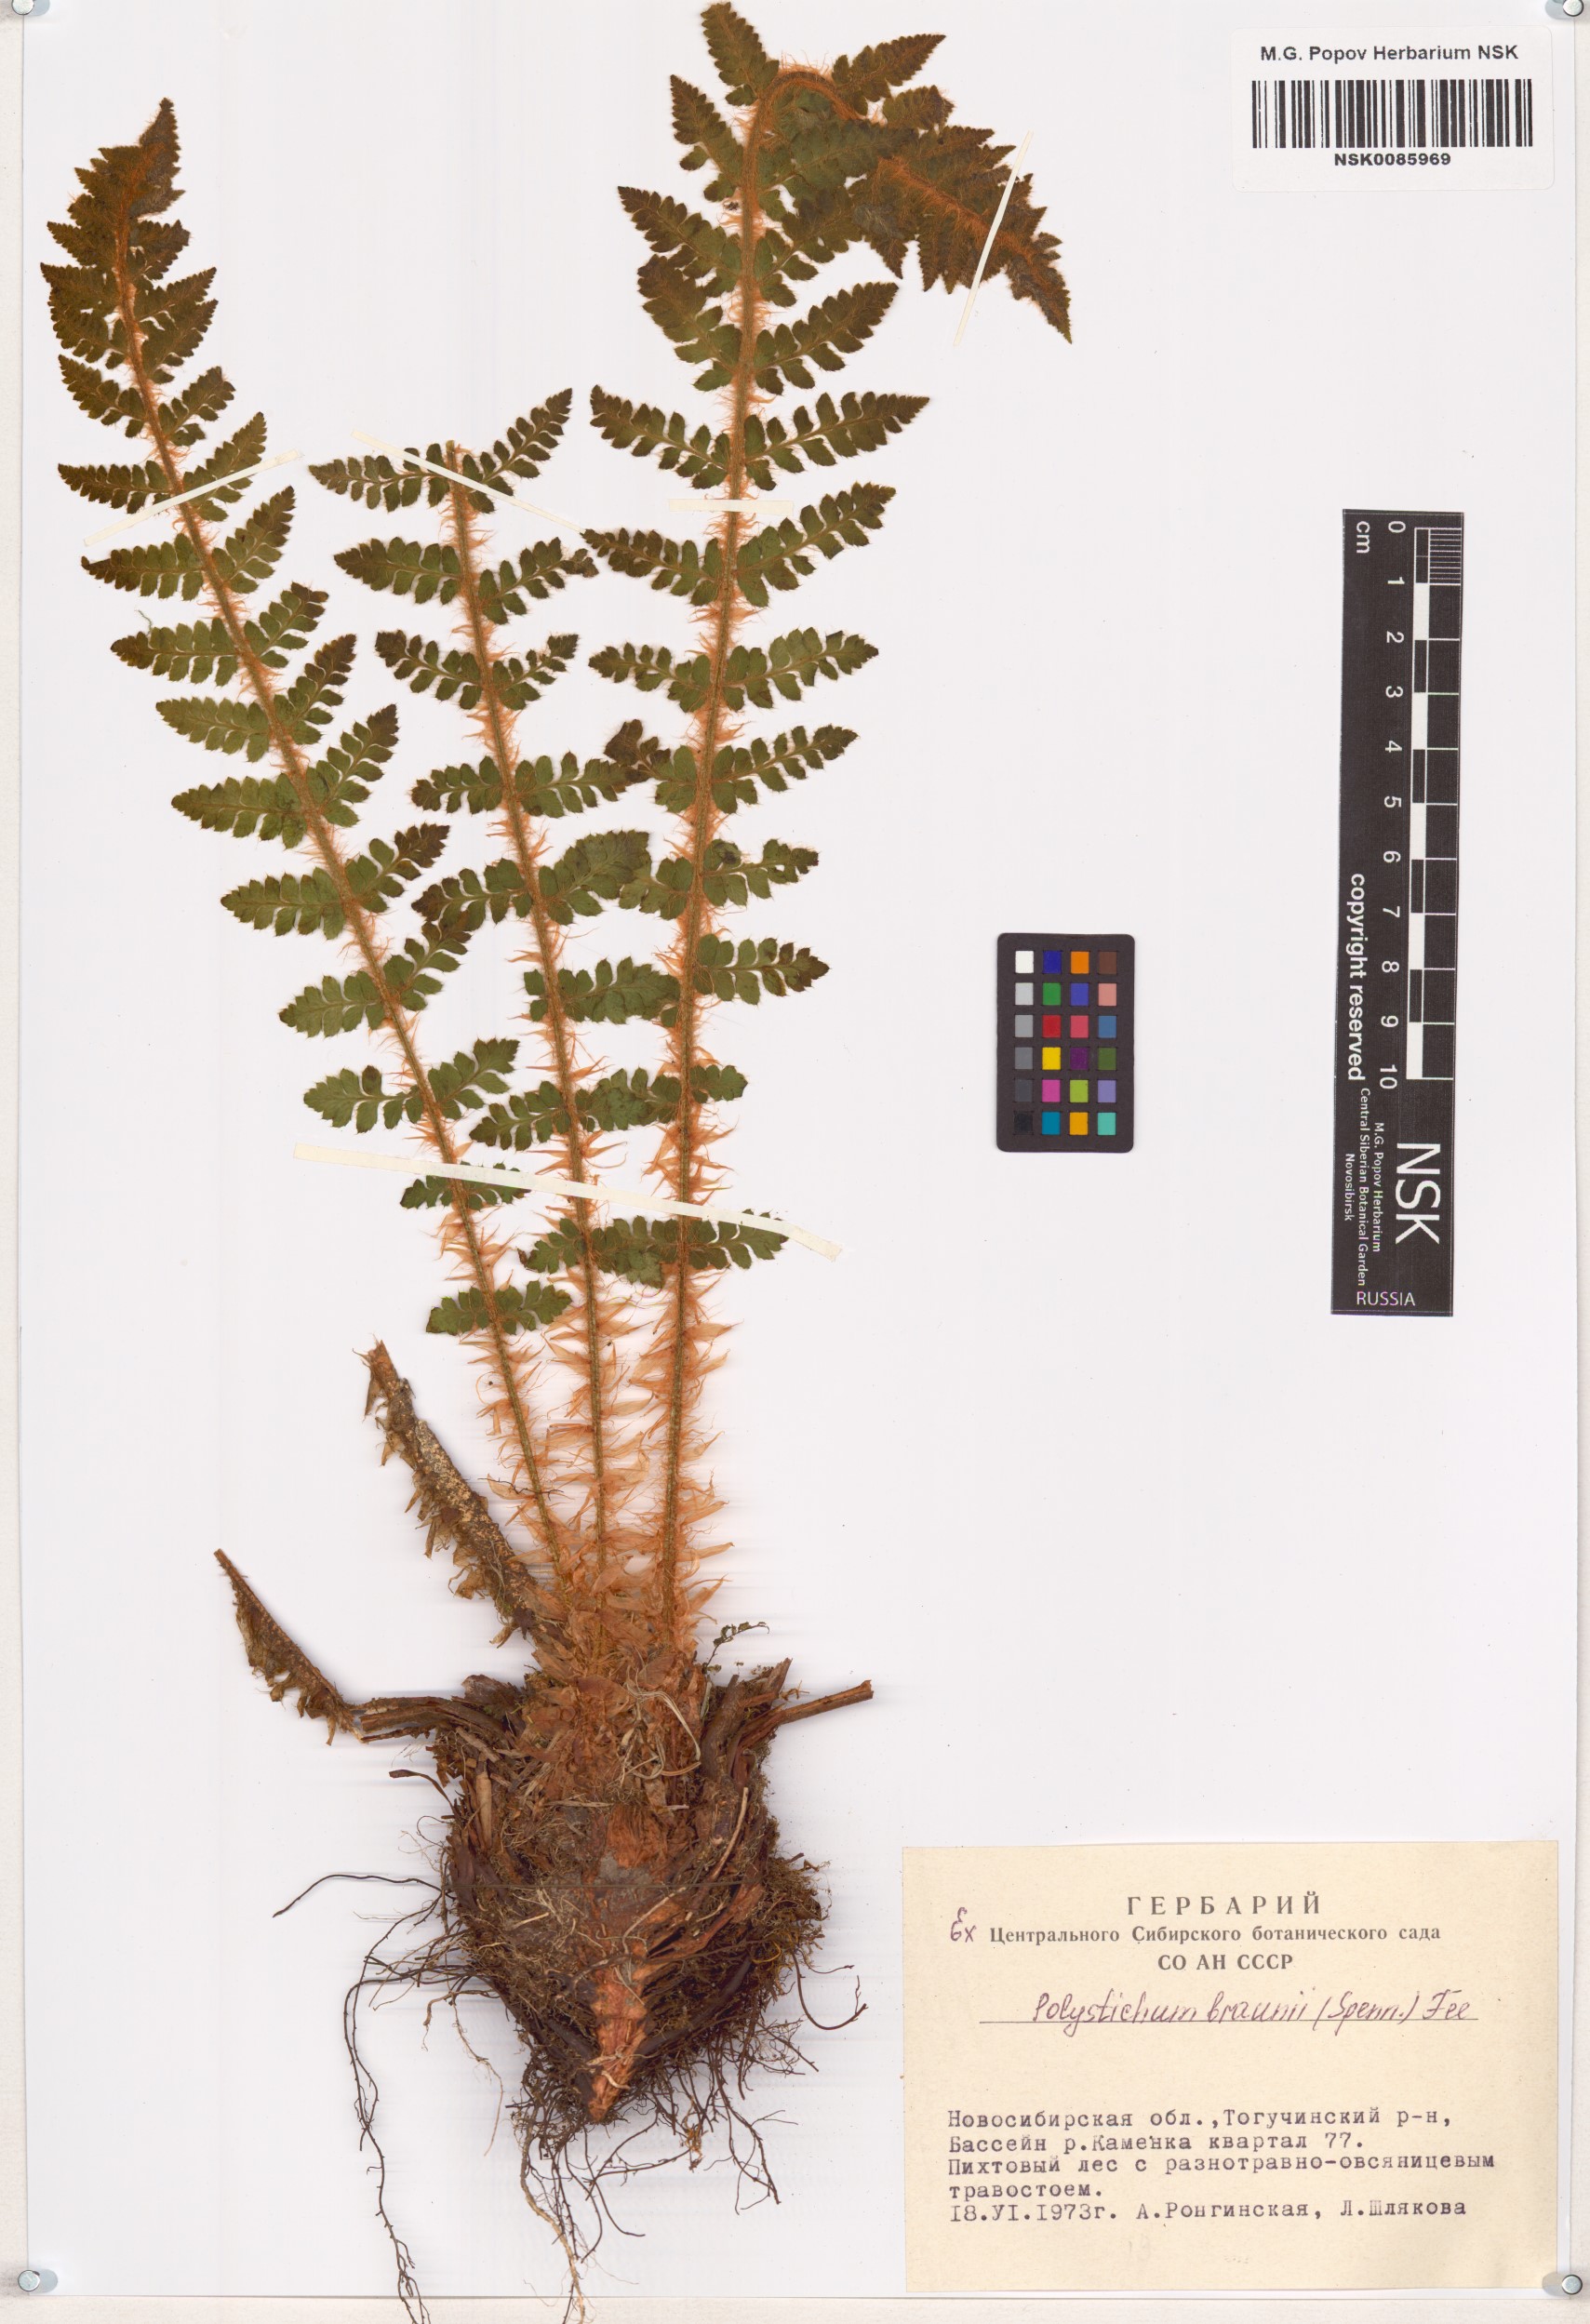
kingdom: Plantae
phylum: Tracheophyta
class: Polypodiopsida
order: Polypodiales
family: Dryopteridaceae
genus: Polystichum
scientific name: Polystichum braunii
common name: Braun's holly fern
